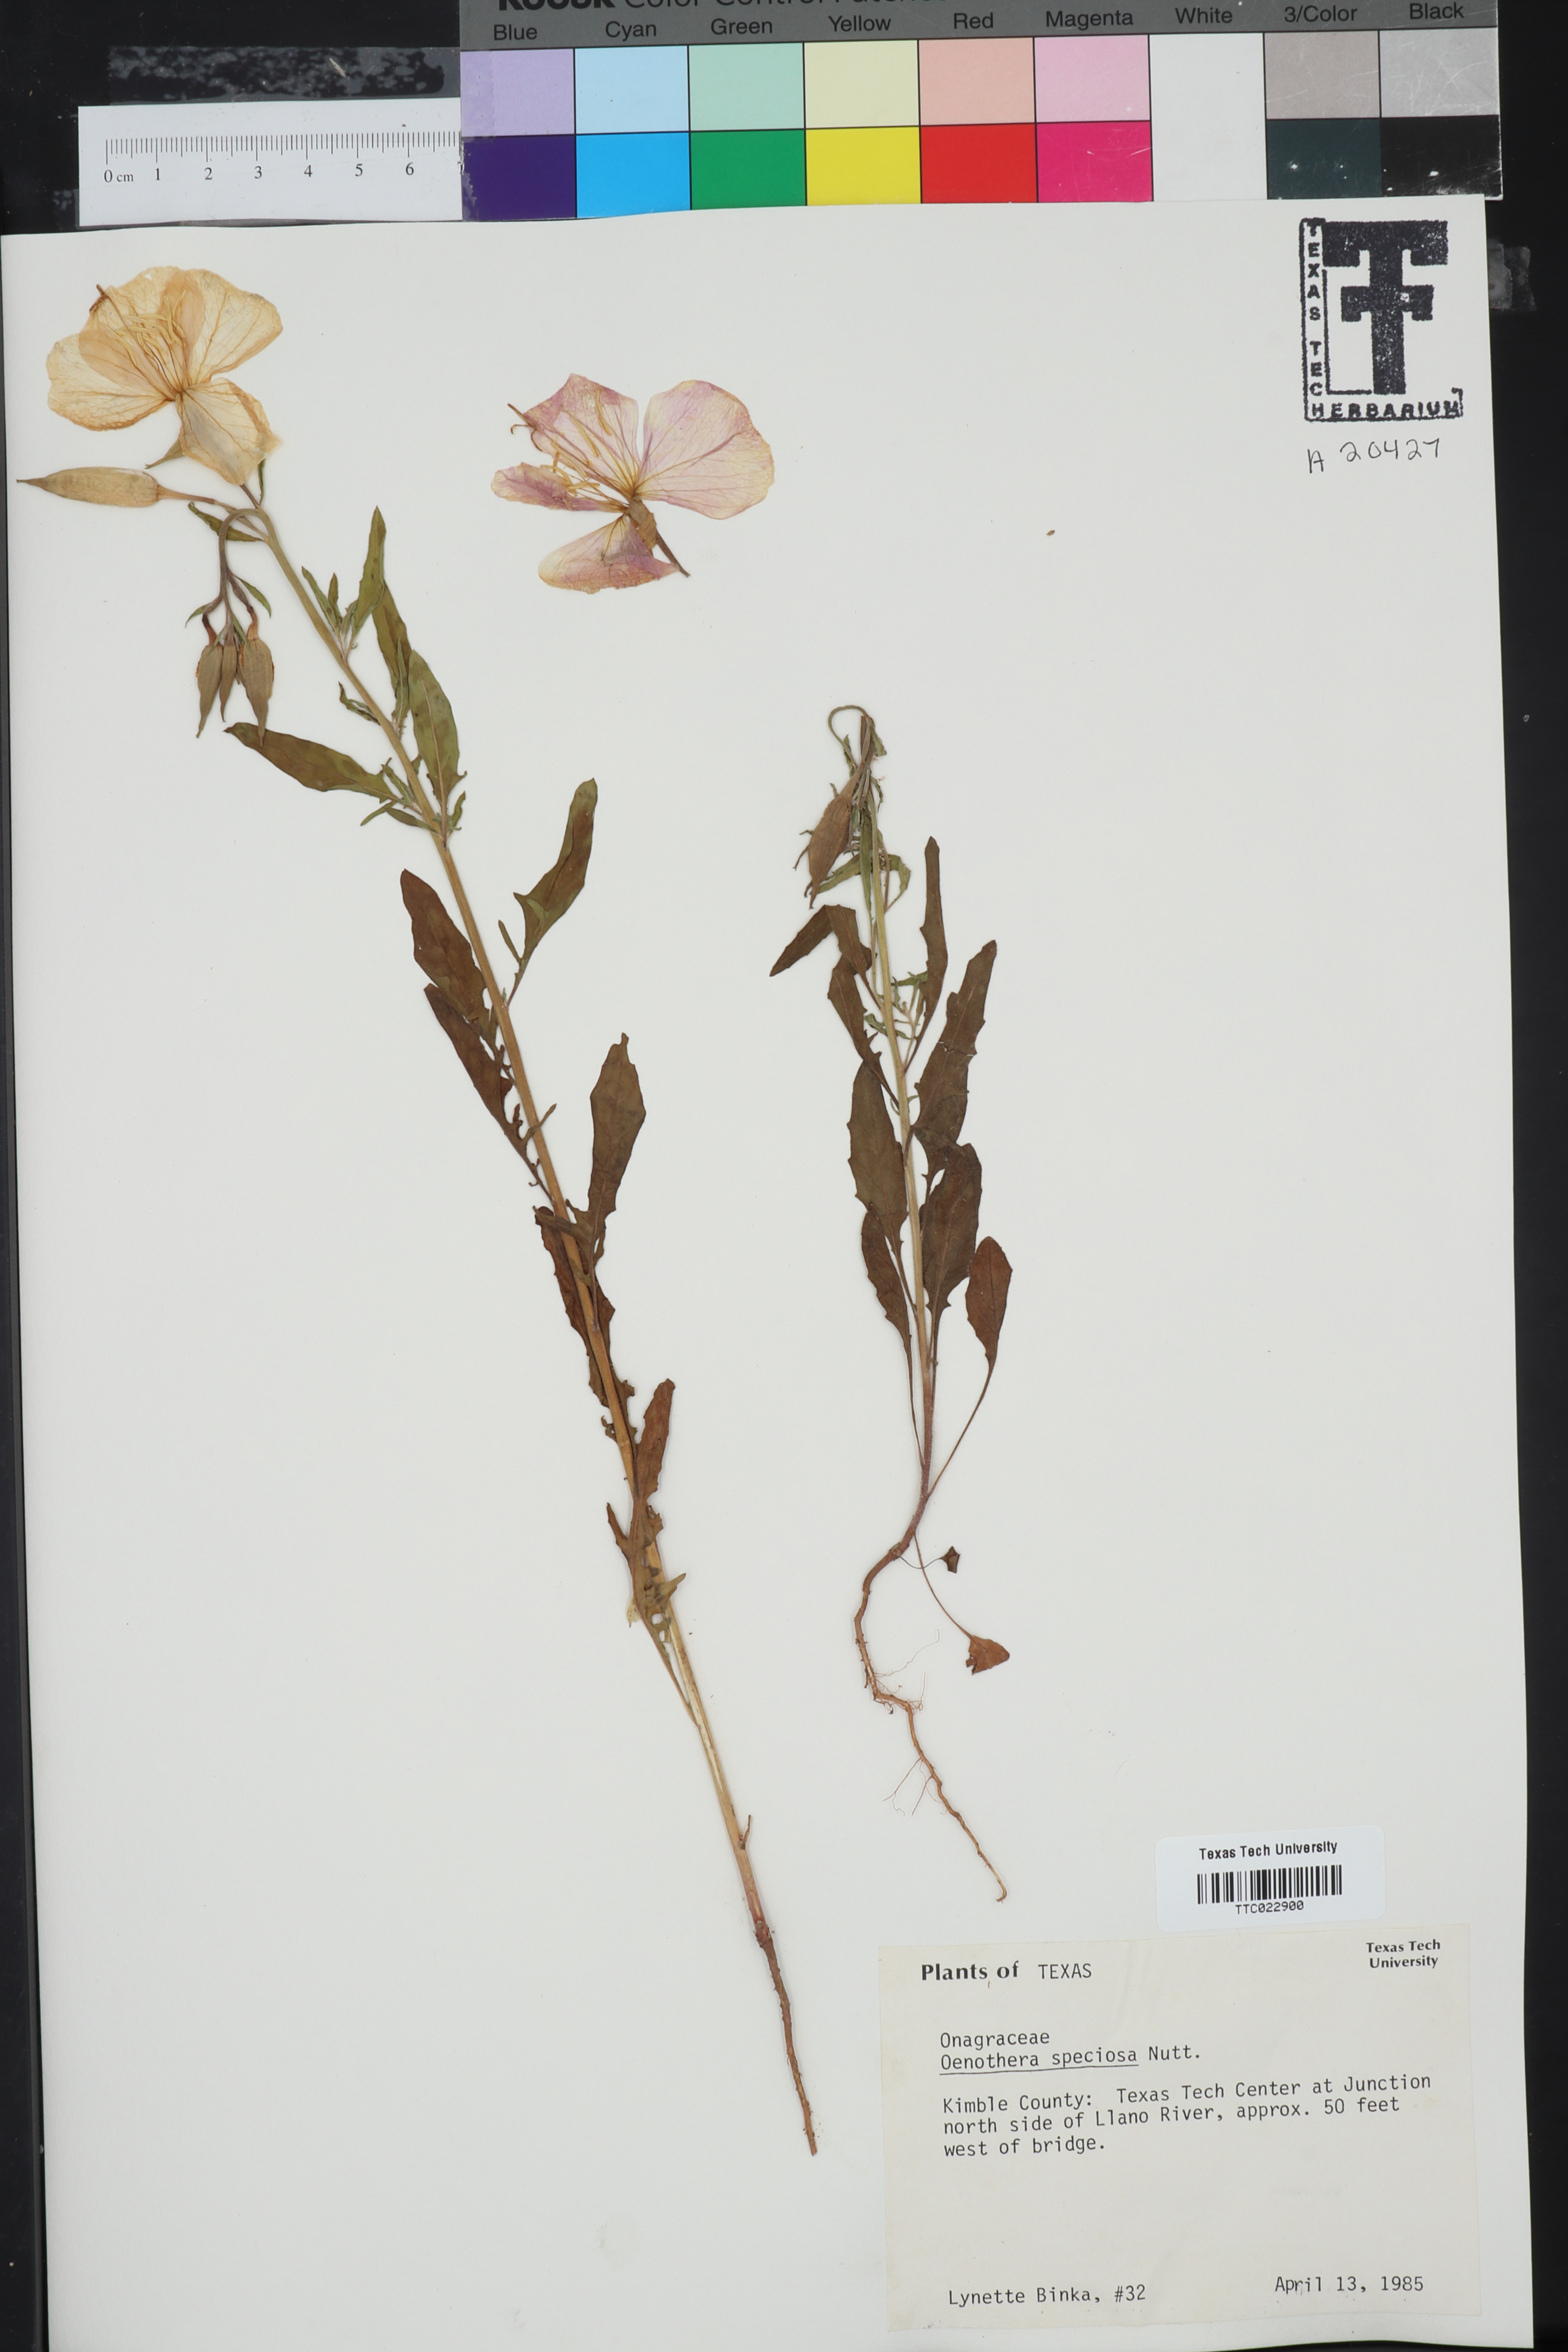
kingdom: Plantae
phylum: Tracheophyta
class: Magnoliopsida
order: Myrtales
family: Onagraceae
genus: Oenothera
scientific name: Oenothera speciosa
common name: White evening-primrose
